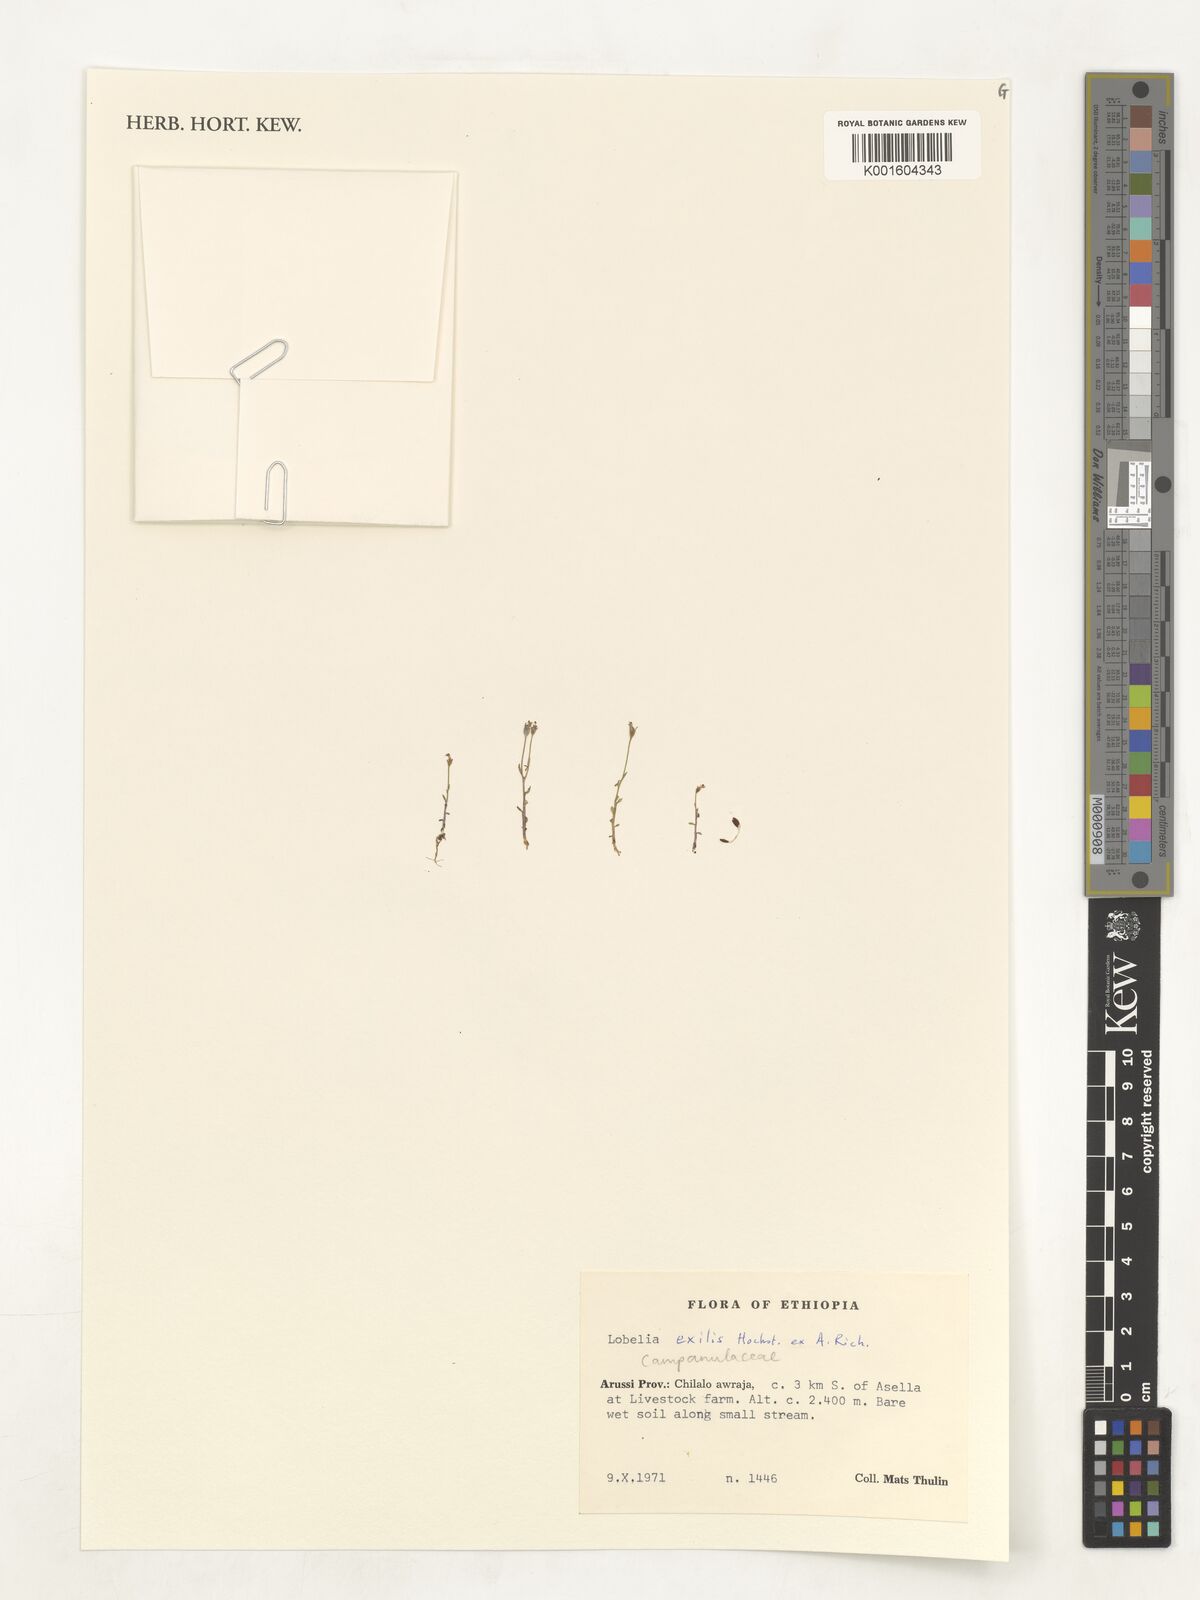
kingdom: Plantae
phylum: Tracheophyta
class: Magnoliopsida
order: Asterales
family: Campanulaceae
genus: Lobelia
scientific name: Lobelia exilis
